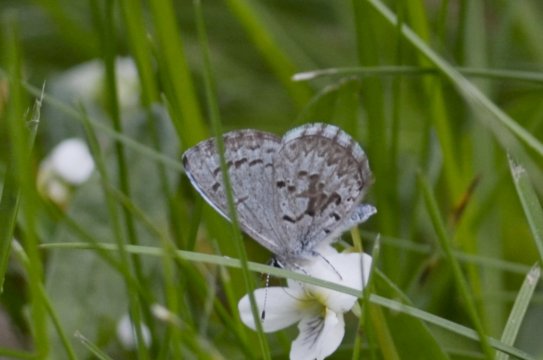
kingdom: Animalia
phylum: Arthropoda
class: Insecta
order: Lepidoptera
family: Lycaenidae
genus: Celastrina
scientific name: Celastrina lucia
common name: Northern Spring Azure
